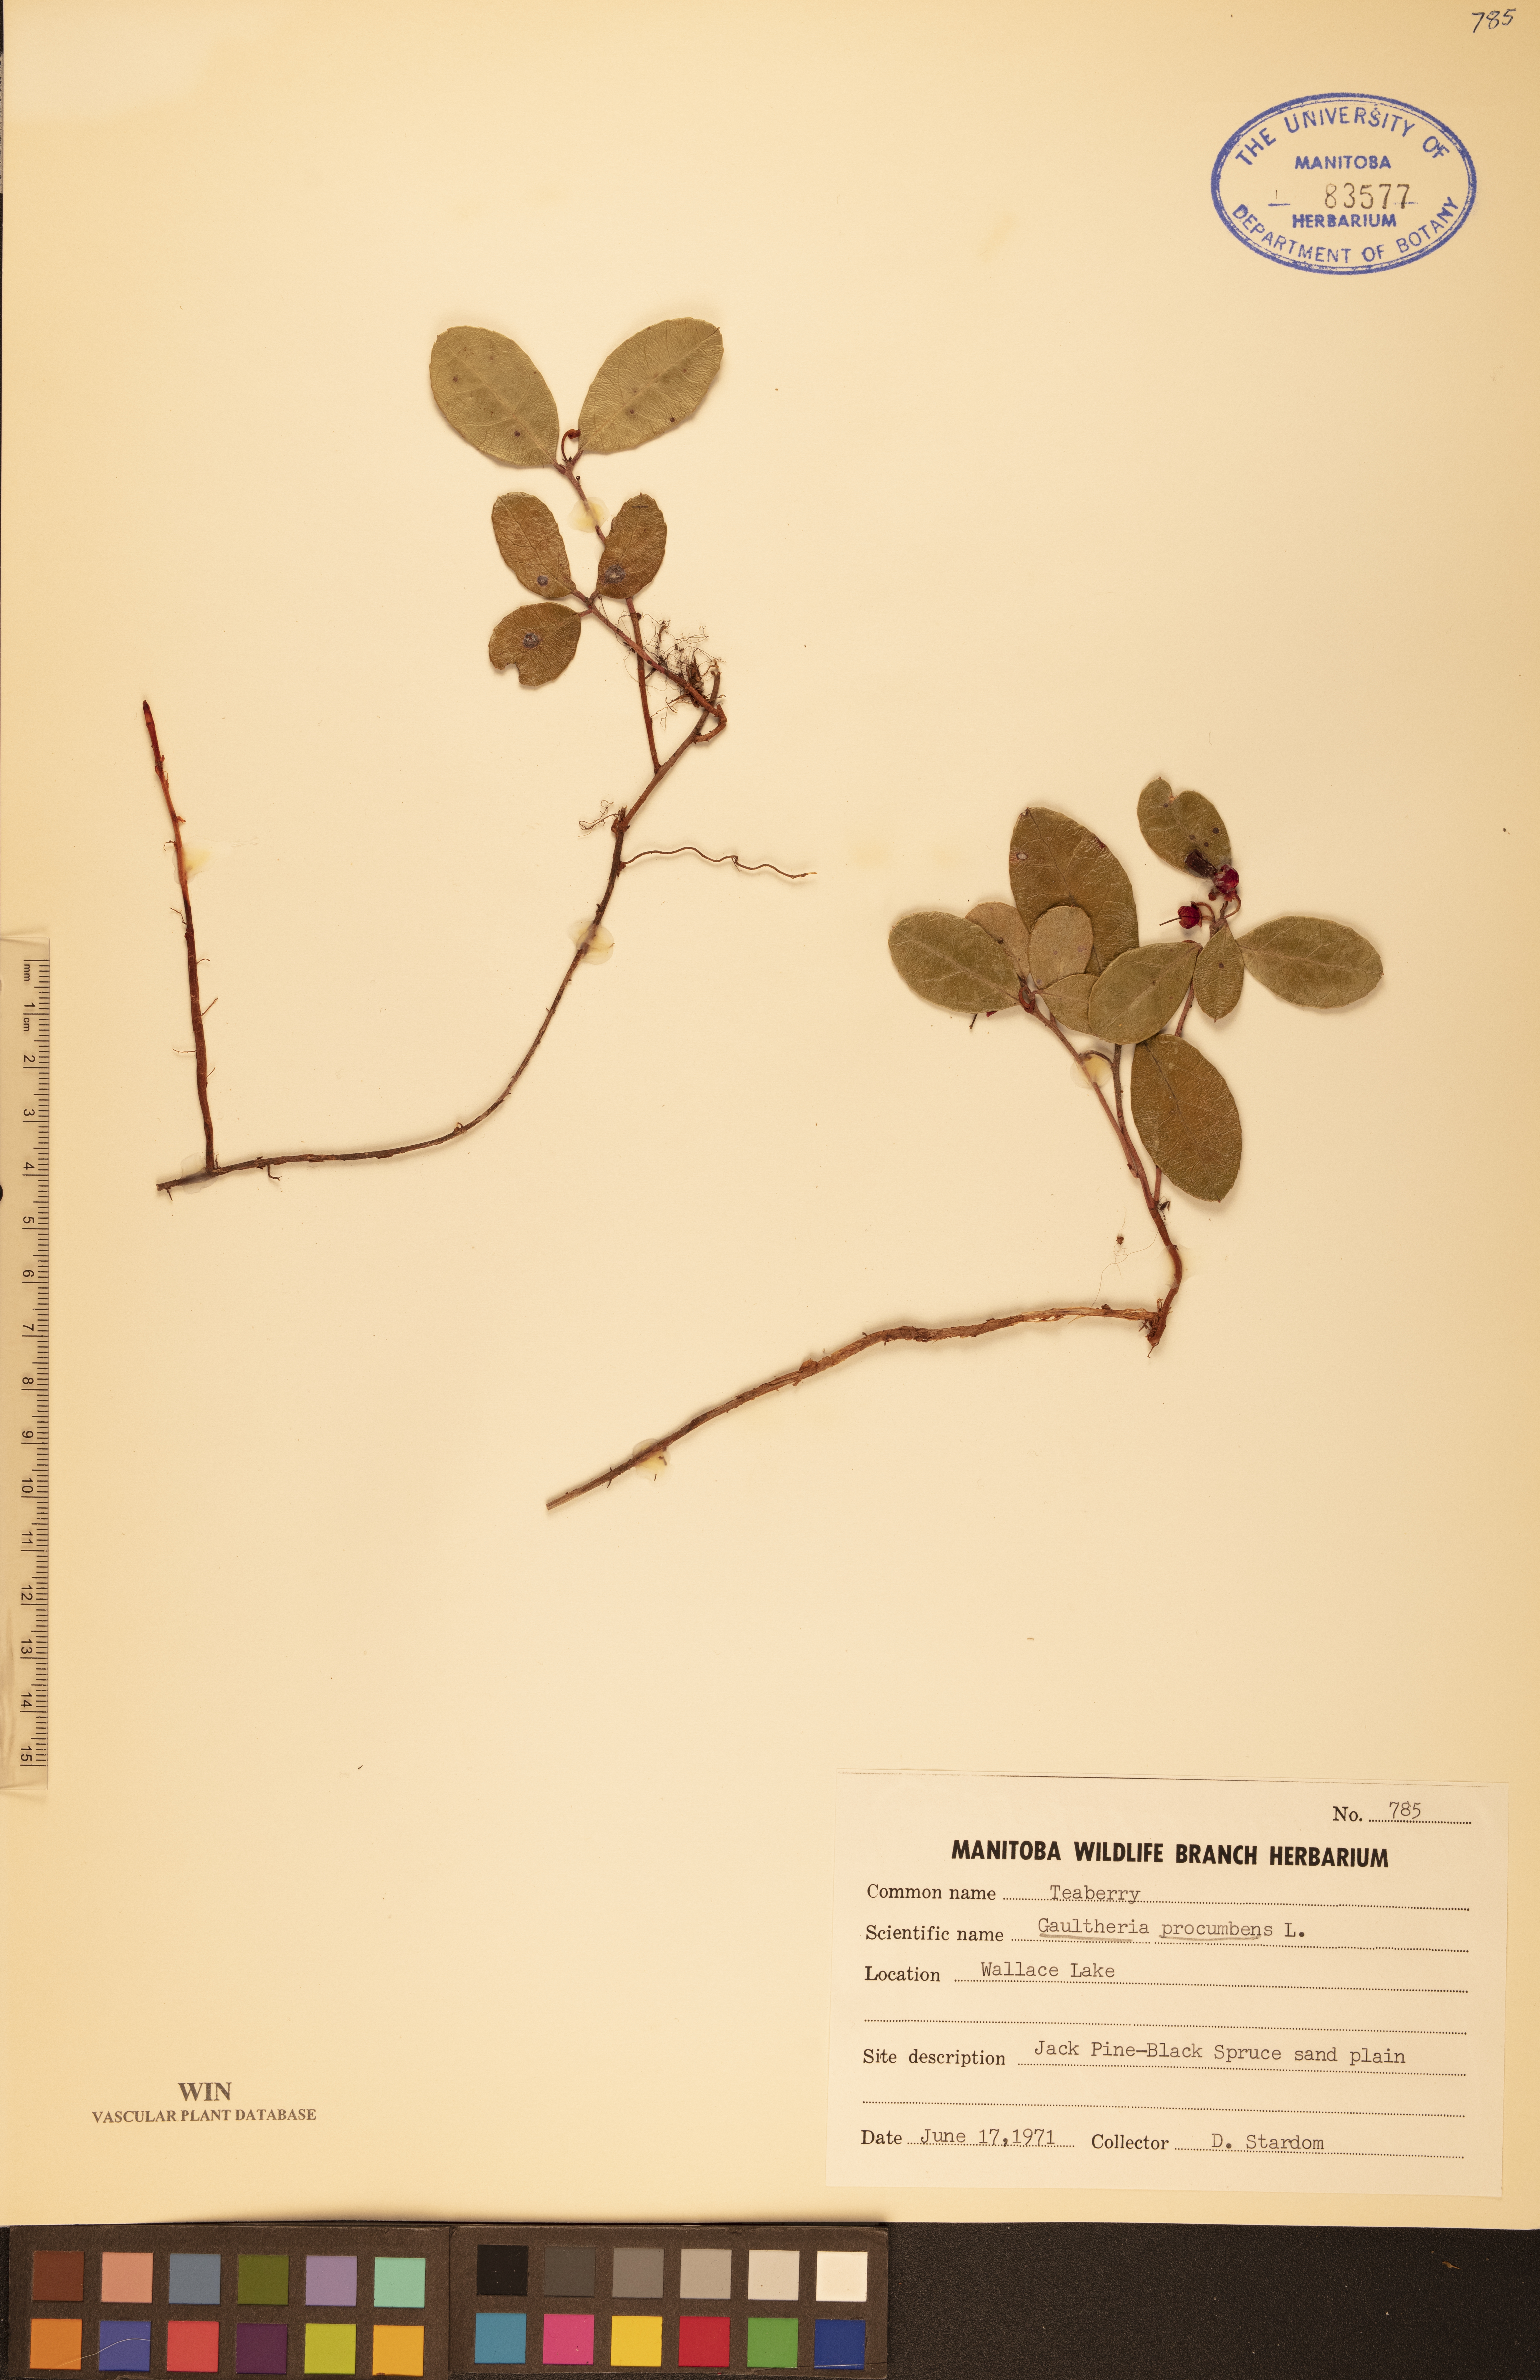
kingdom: Plantae
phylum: Tracheophyta
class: Magnoliopsida
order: Ericales
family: Ericaceae
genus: Gaultheria
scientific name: Gaultheria procumbens
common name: Checkerberry
